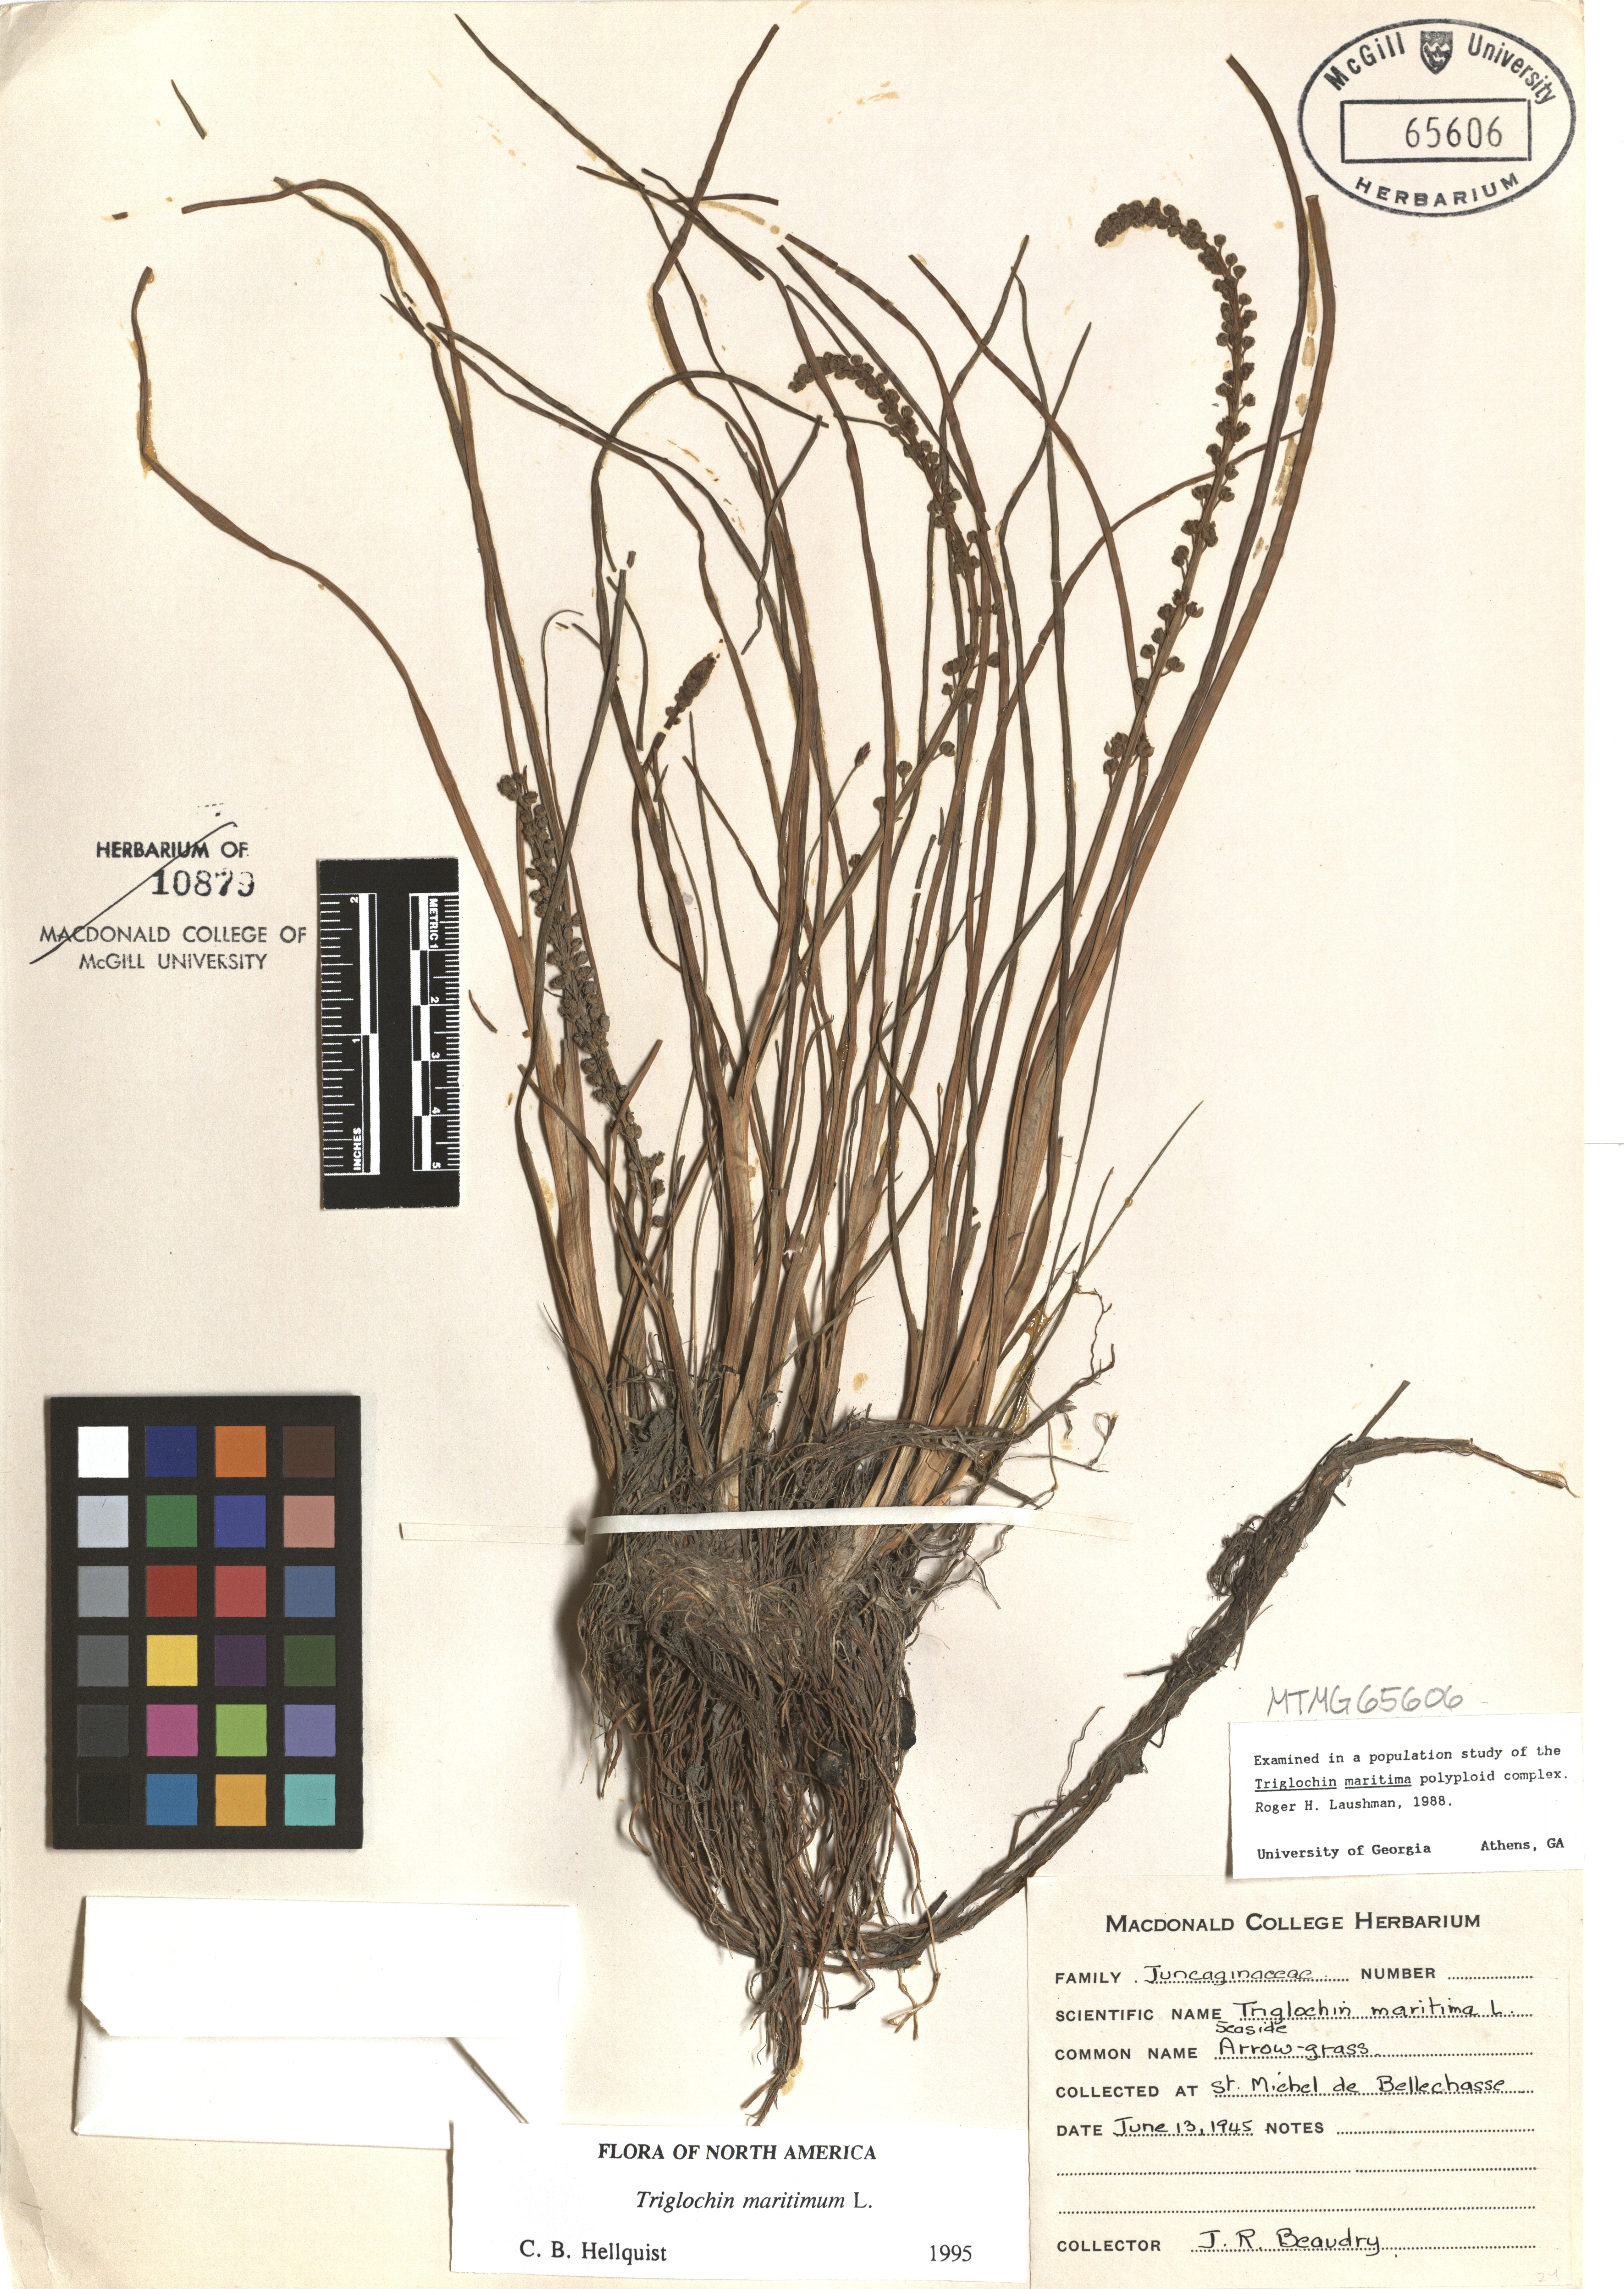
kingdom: Plantae
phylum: Tracheophyta
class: Liliopsida
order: Alismatales
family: Juncaginaceae
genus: Triglochin
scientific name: Triglochin maritima
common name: Sea arrowgrass
